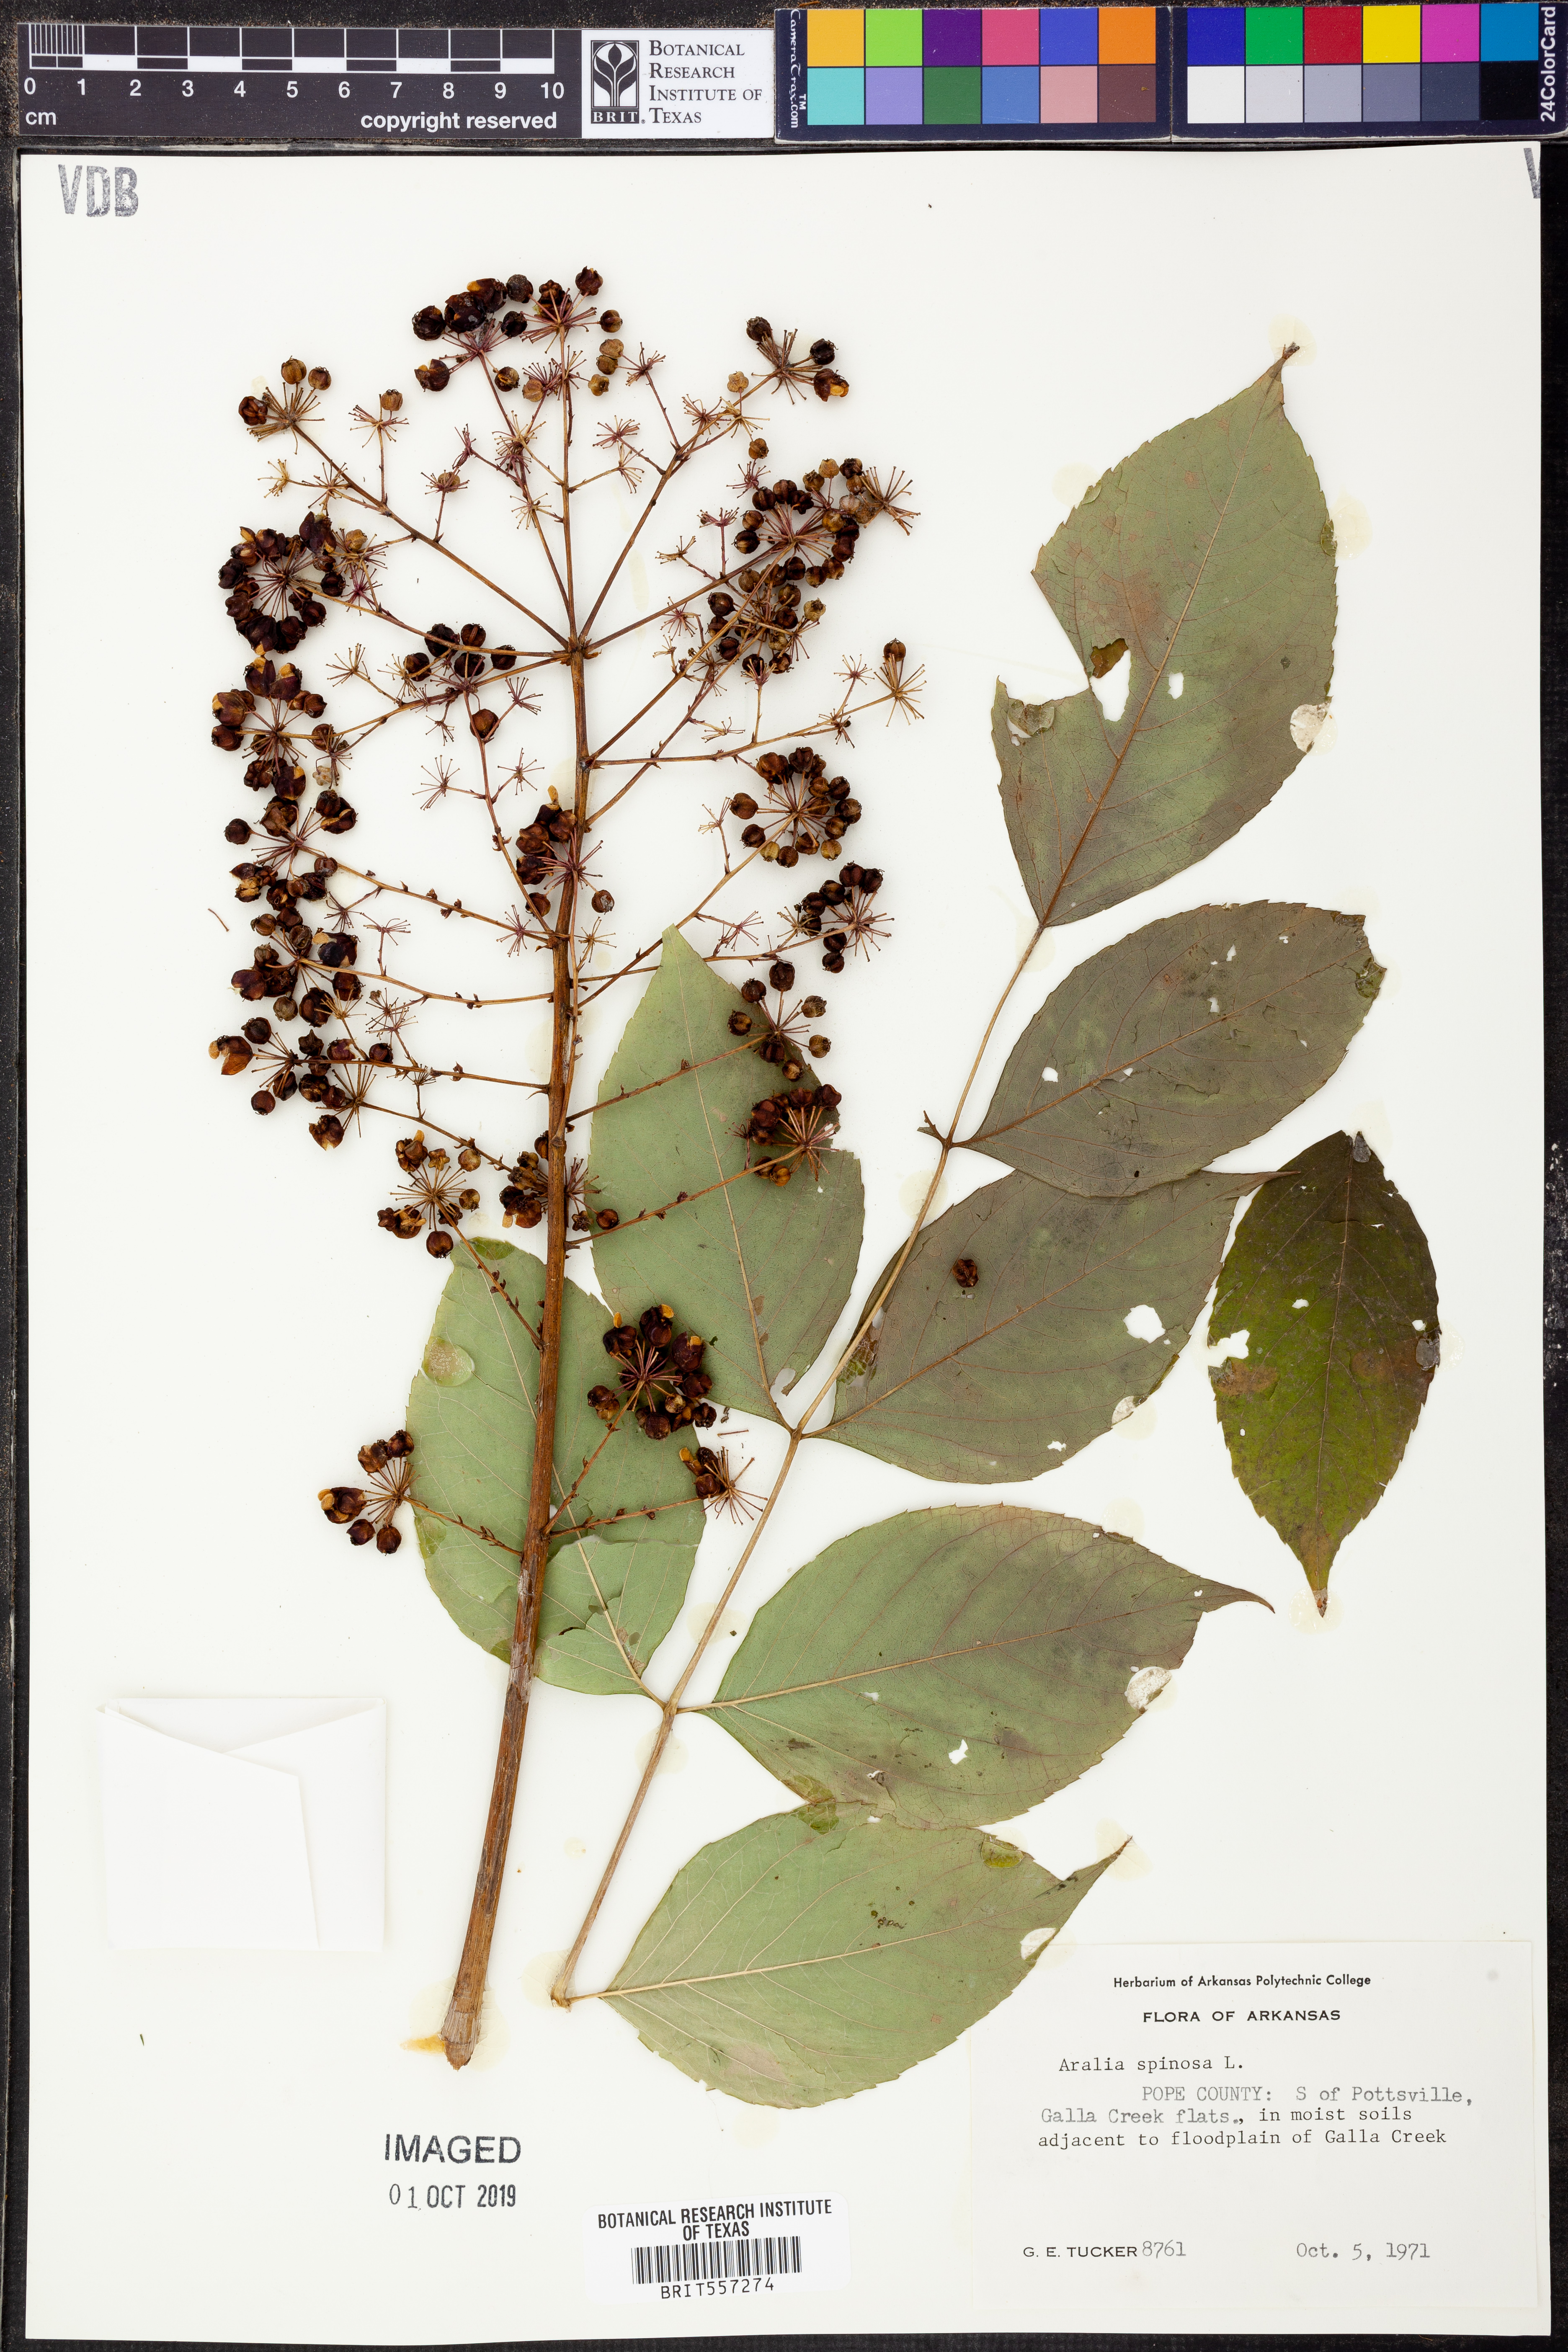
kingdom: Plantae
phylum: Tracheophyta
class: Magnoliopsida
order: Apiales
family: Araliaceae
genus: Aralia
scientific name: Aralia spinosa
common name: Hercules'-club
